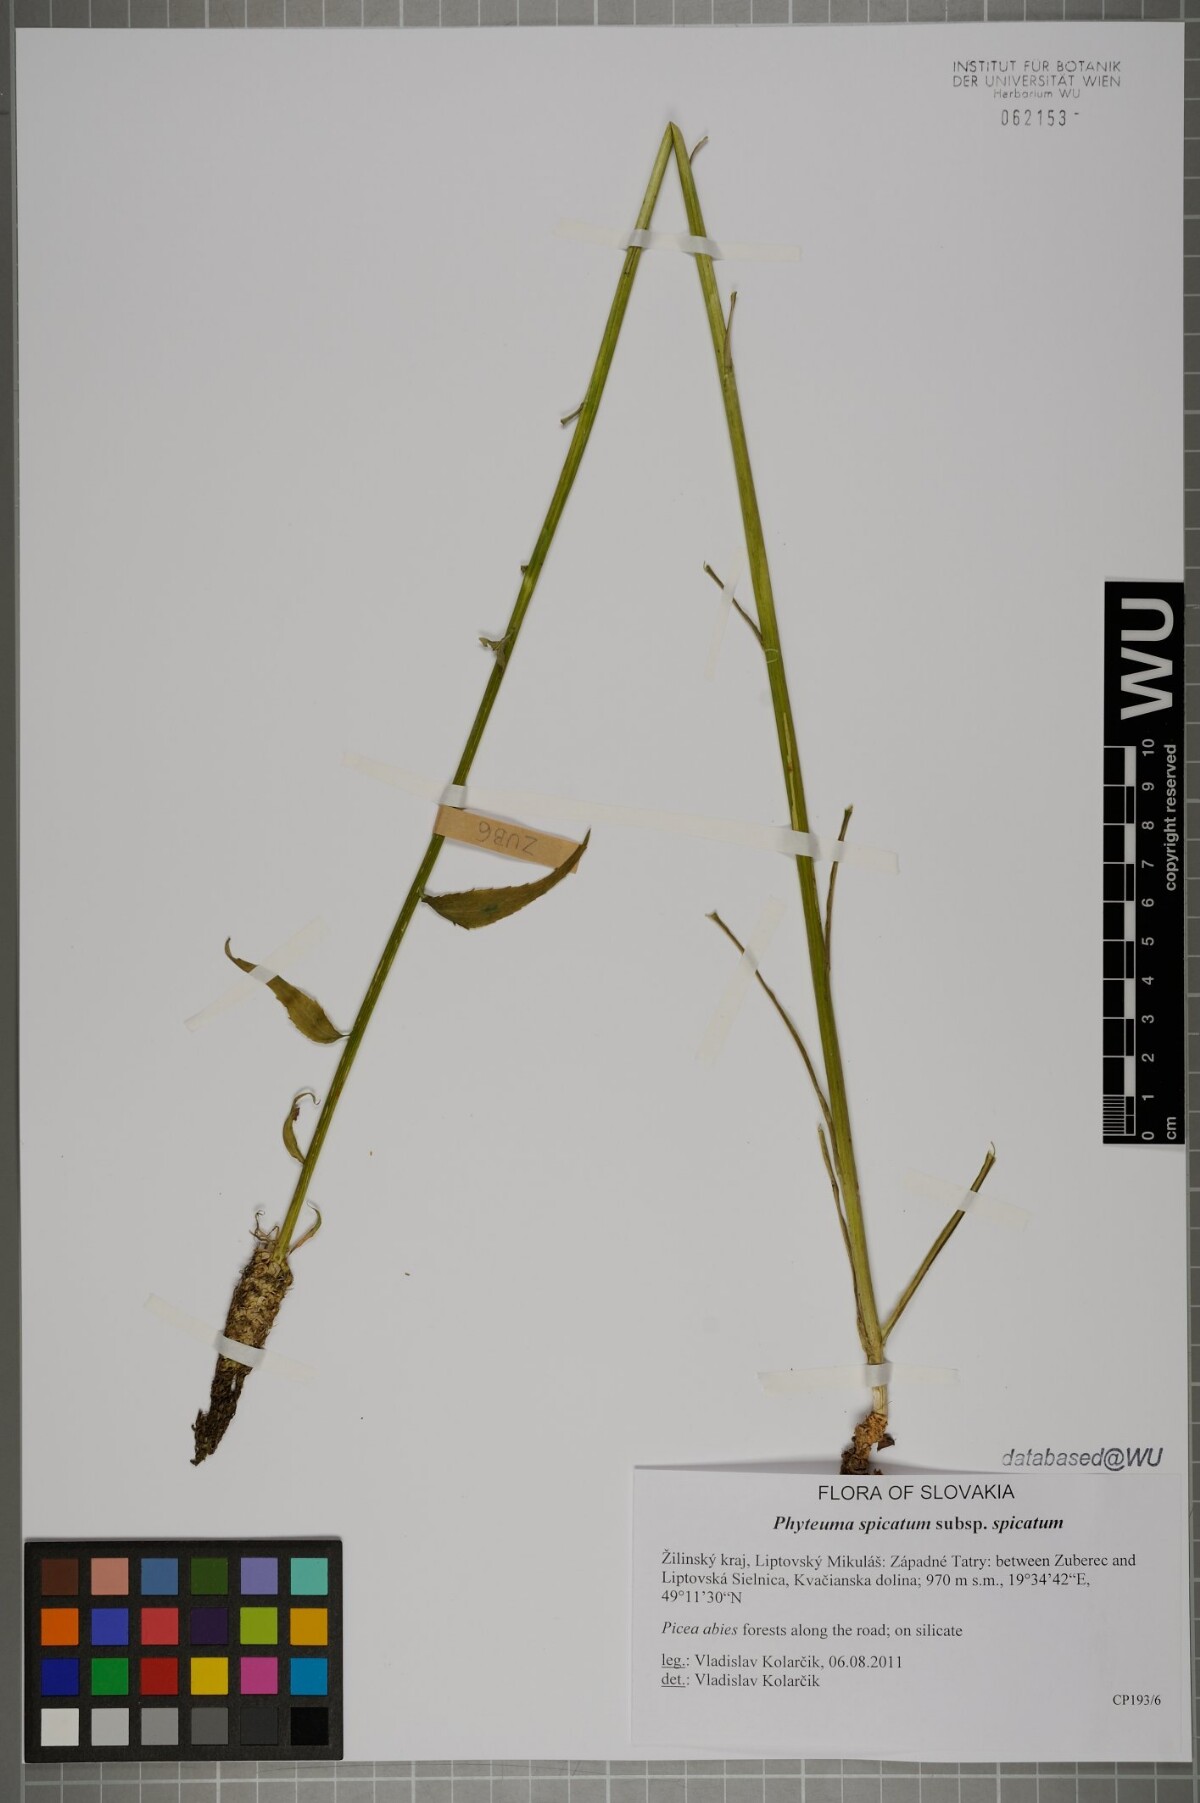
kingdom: Plantae
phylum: Tracheophyta
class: Magnoliopsida
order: Asterales
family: Campanulaceae
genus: Phyteuma
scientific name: Phyteuma spicatum
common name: Spiked rampion
